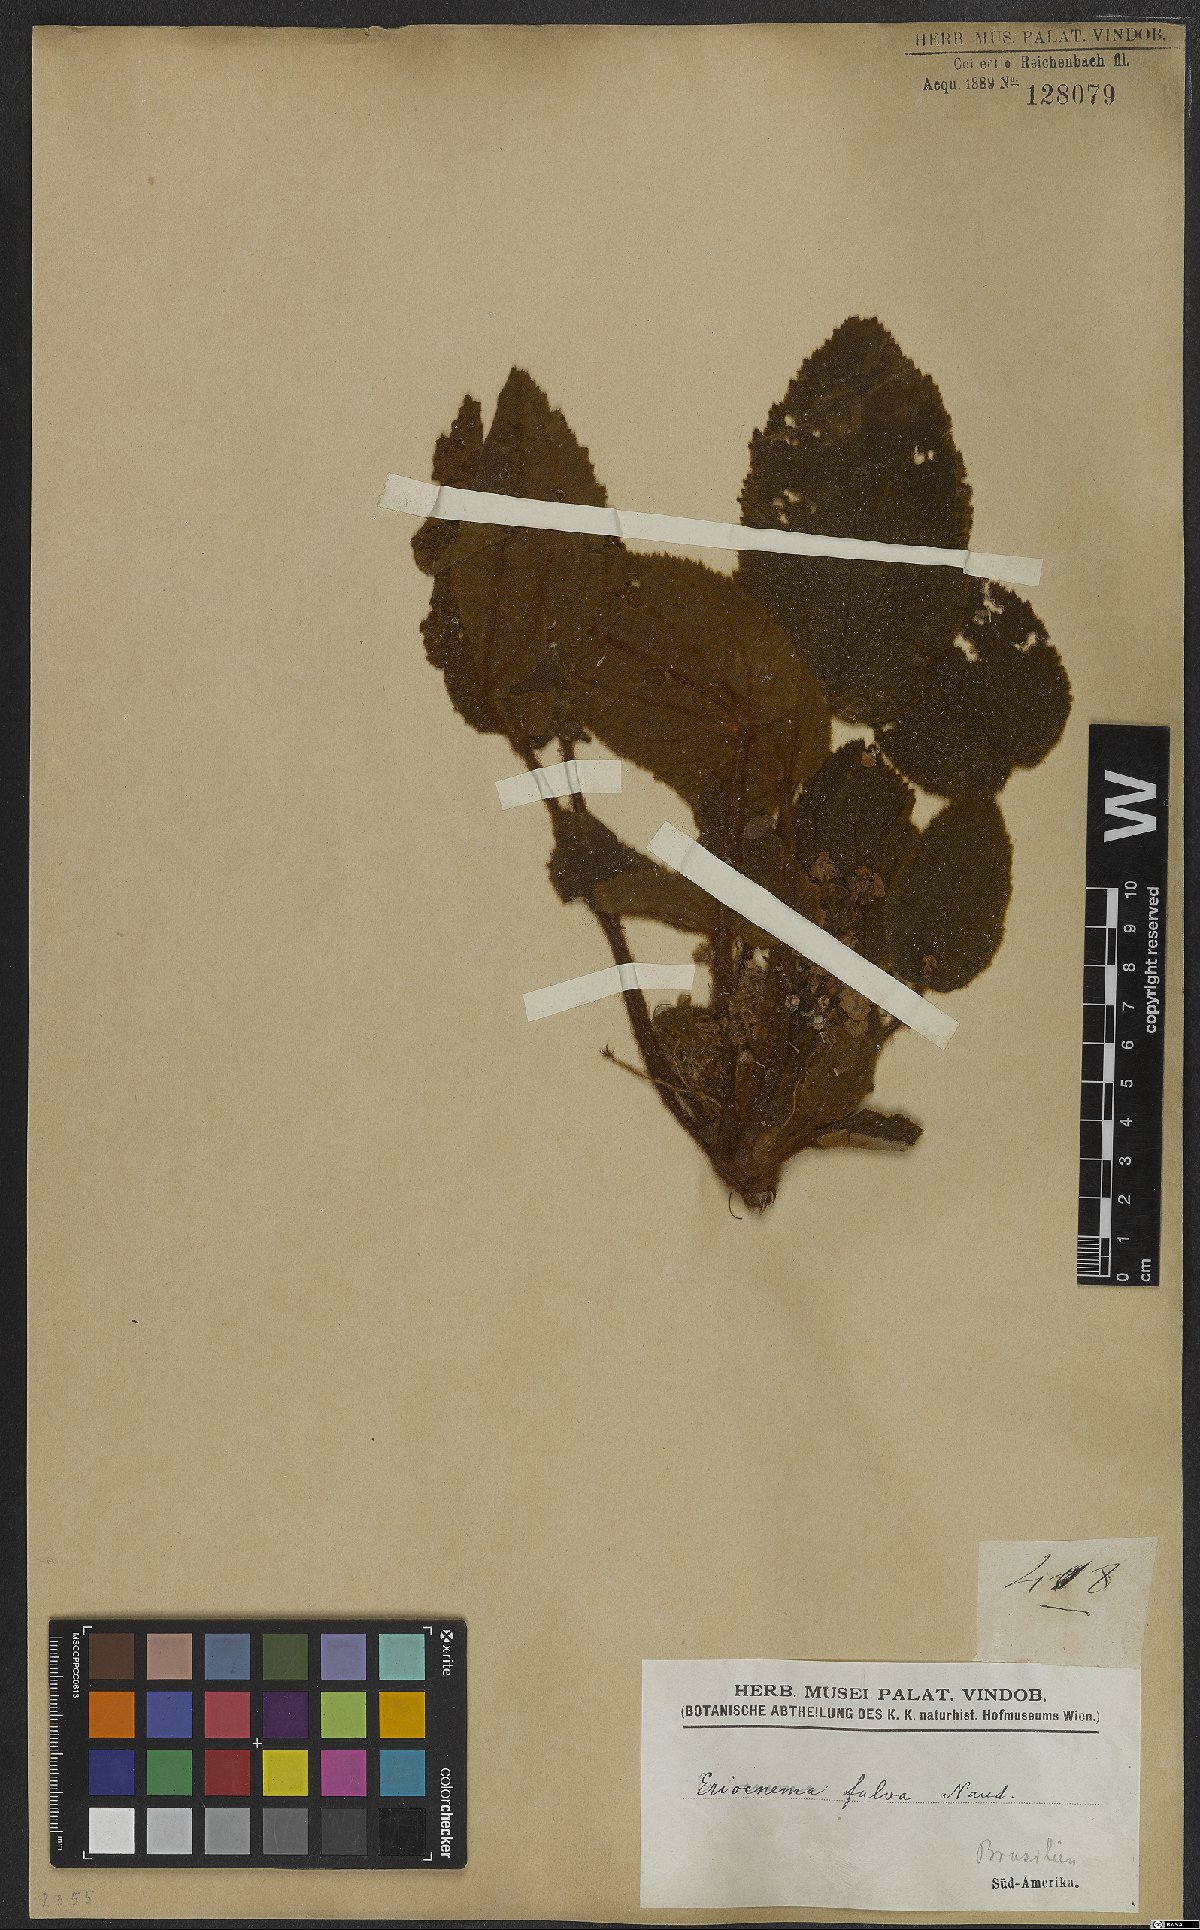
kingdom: Plantae
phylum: Tracheophyta
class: Magnoliopsida
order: Myrtales
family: Melastomataceae
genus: Eriocnema
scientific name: Eriocnema fulva
